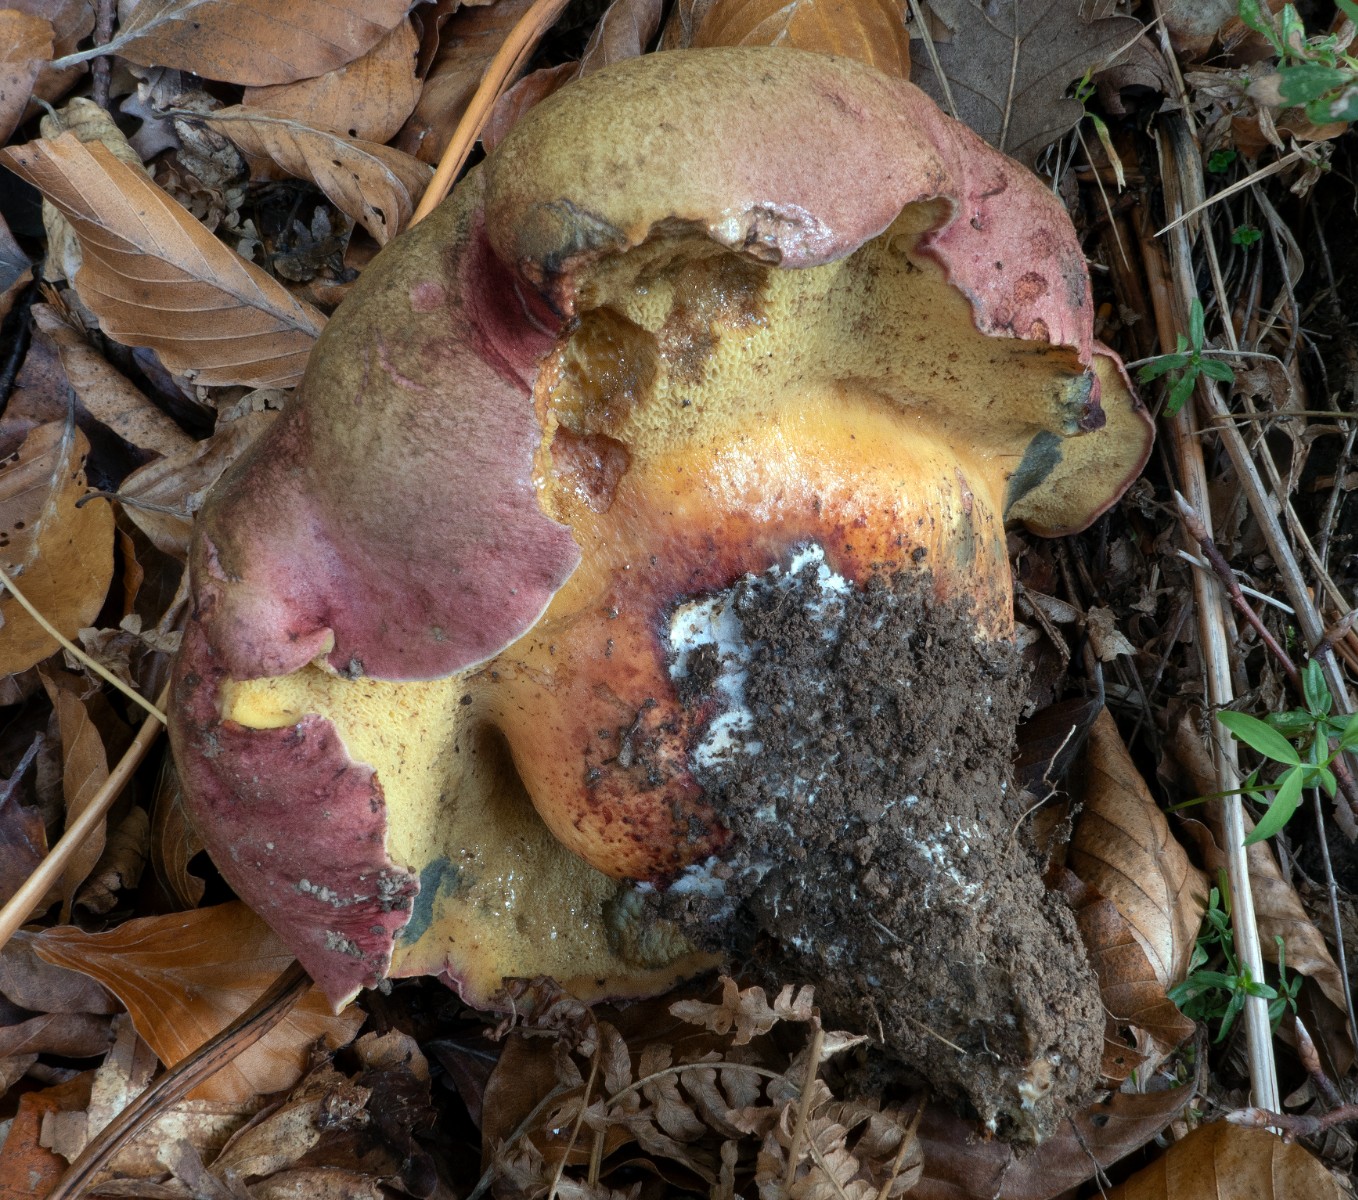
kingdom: Fungi
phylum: Basidiomycota
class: Agaricomycetes
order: Boletales
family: Boletaceae
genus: Baorangia
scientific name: Baorangia emileorum
